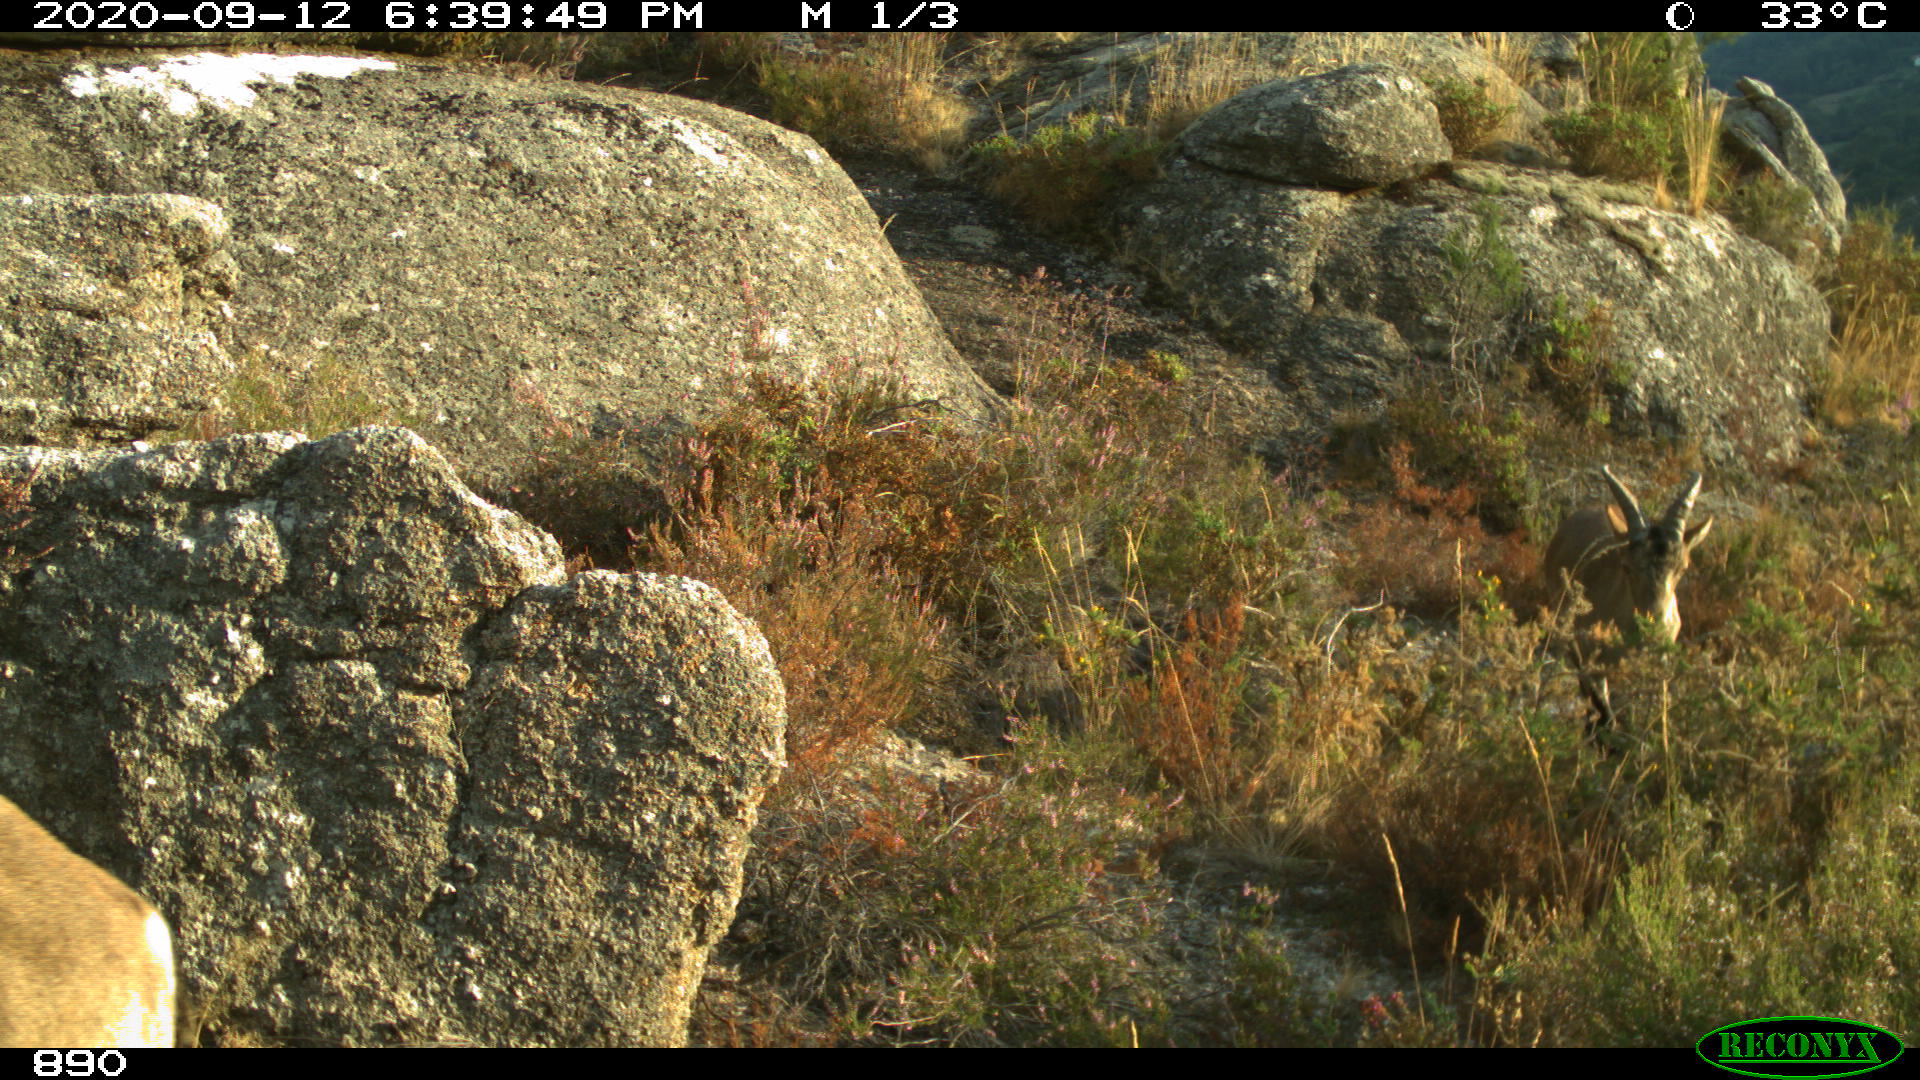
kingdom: Animalia
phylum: Chordata
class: Mammalia
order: Artiodactyla
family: Bovidae
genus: Capra
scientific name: Capra pyrenaica
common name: Spanish ibex
